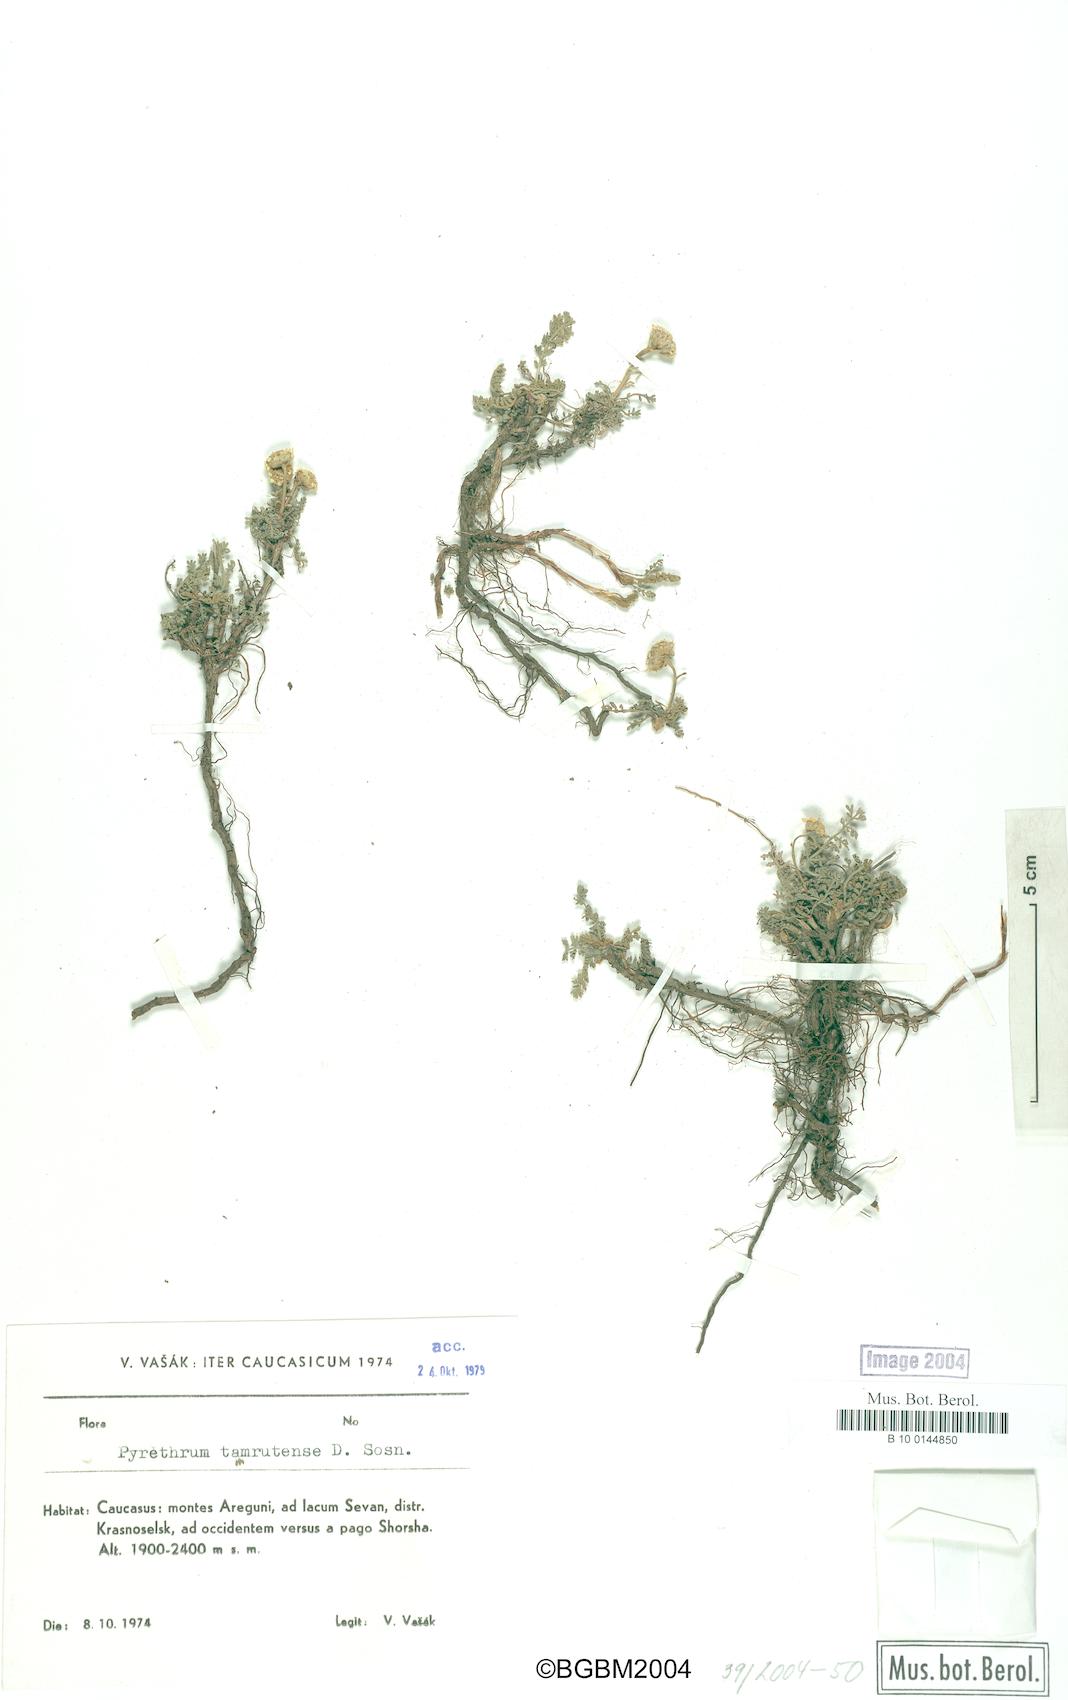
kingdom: Plantae
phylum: Tracheophyta
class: Magnoliopsida
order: Asterales
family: Asteraceae
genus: Tanacetum
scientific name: Tanacetum pinnatum
